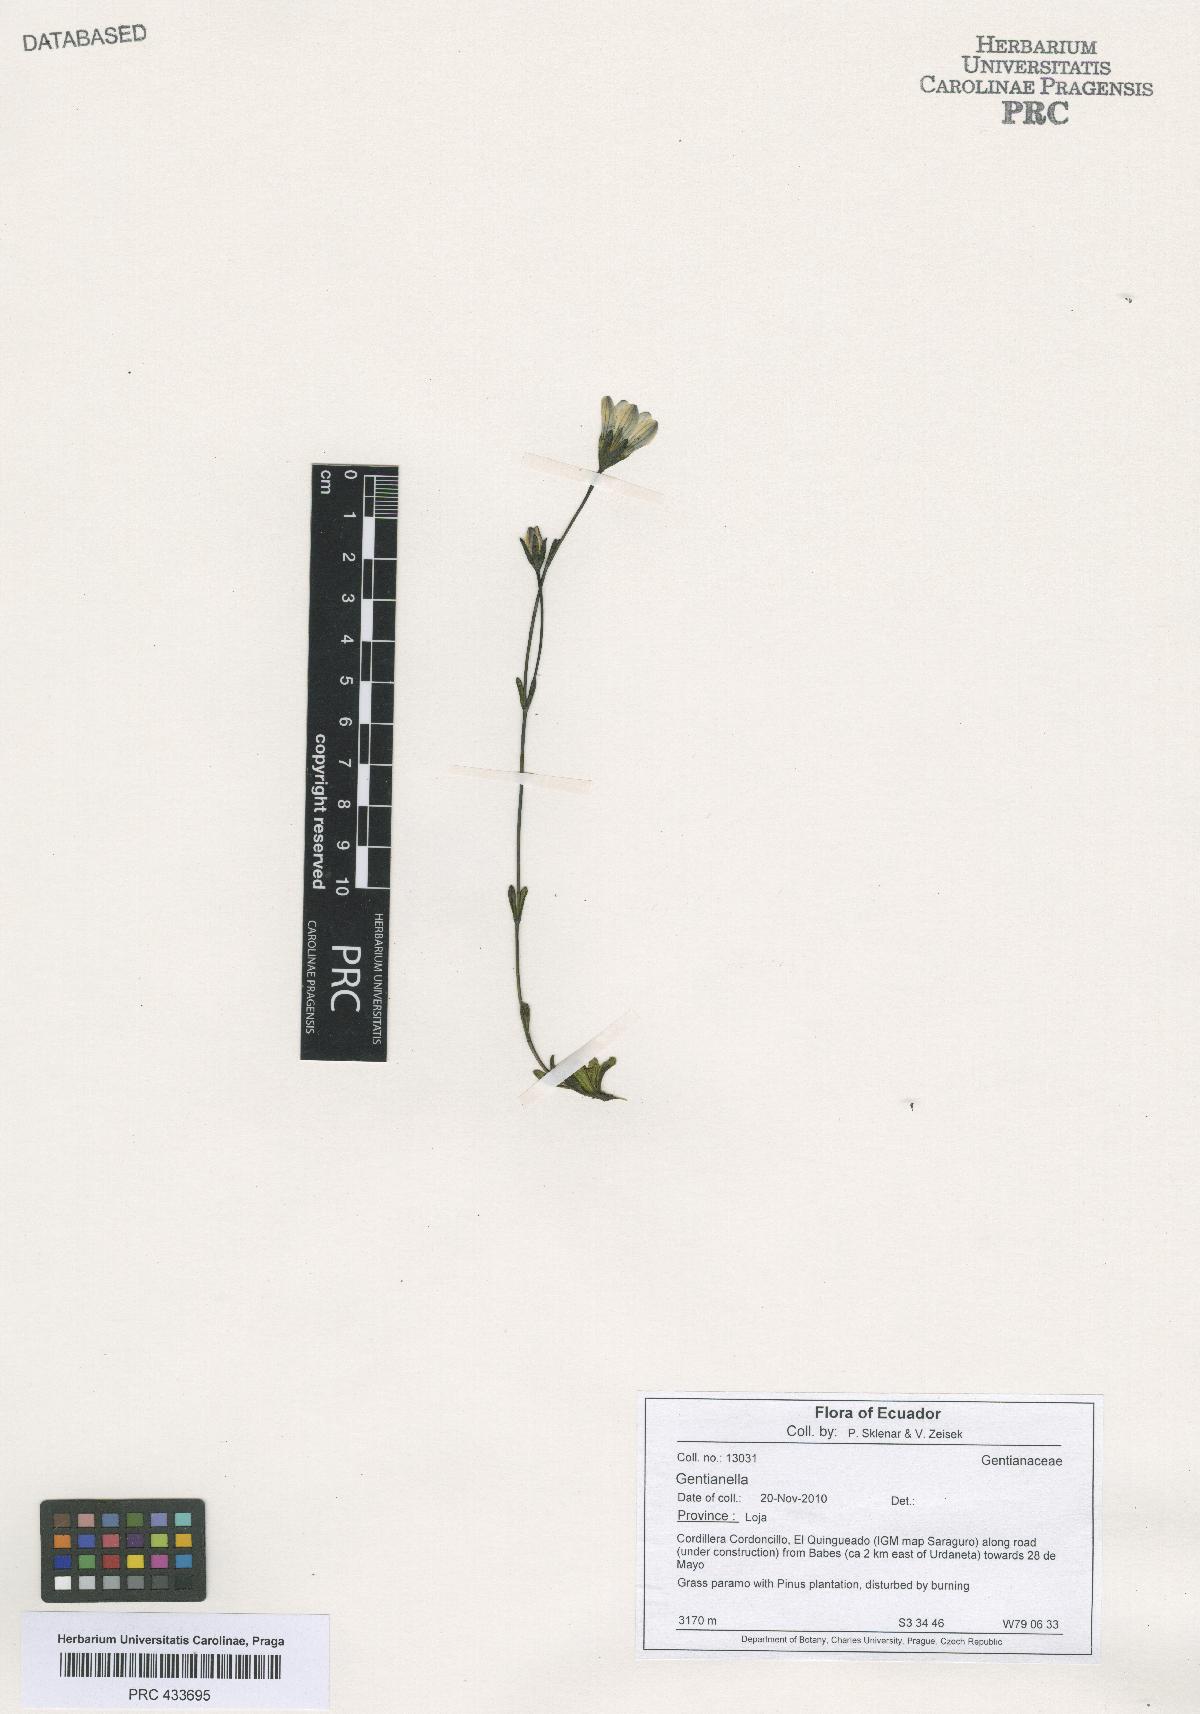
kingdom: Plantae
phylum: Tracheophyta
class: Magnoliopsida
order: Gentianales
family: Gentianaceae
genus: Gentianella
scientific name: Gentianella
